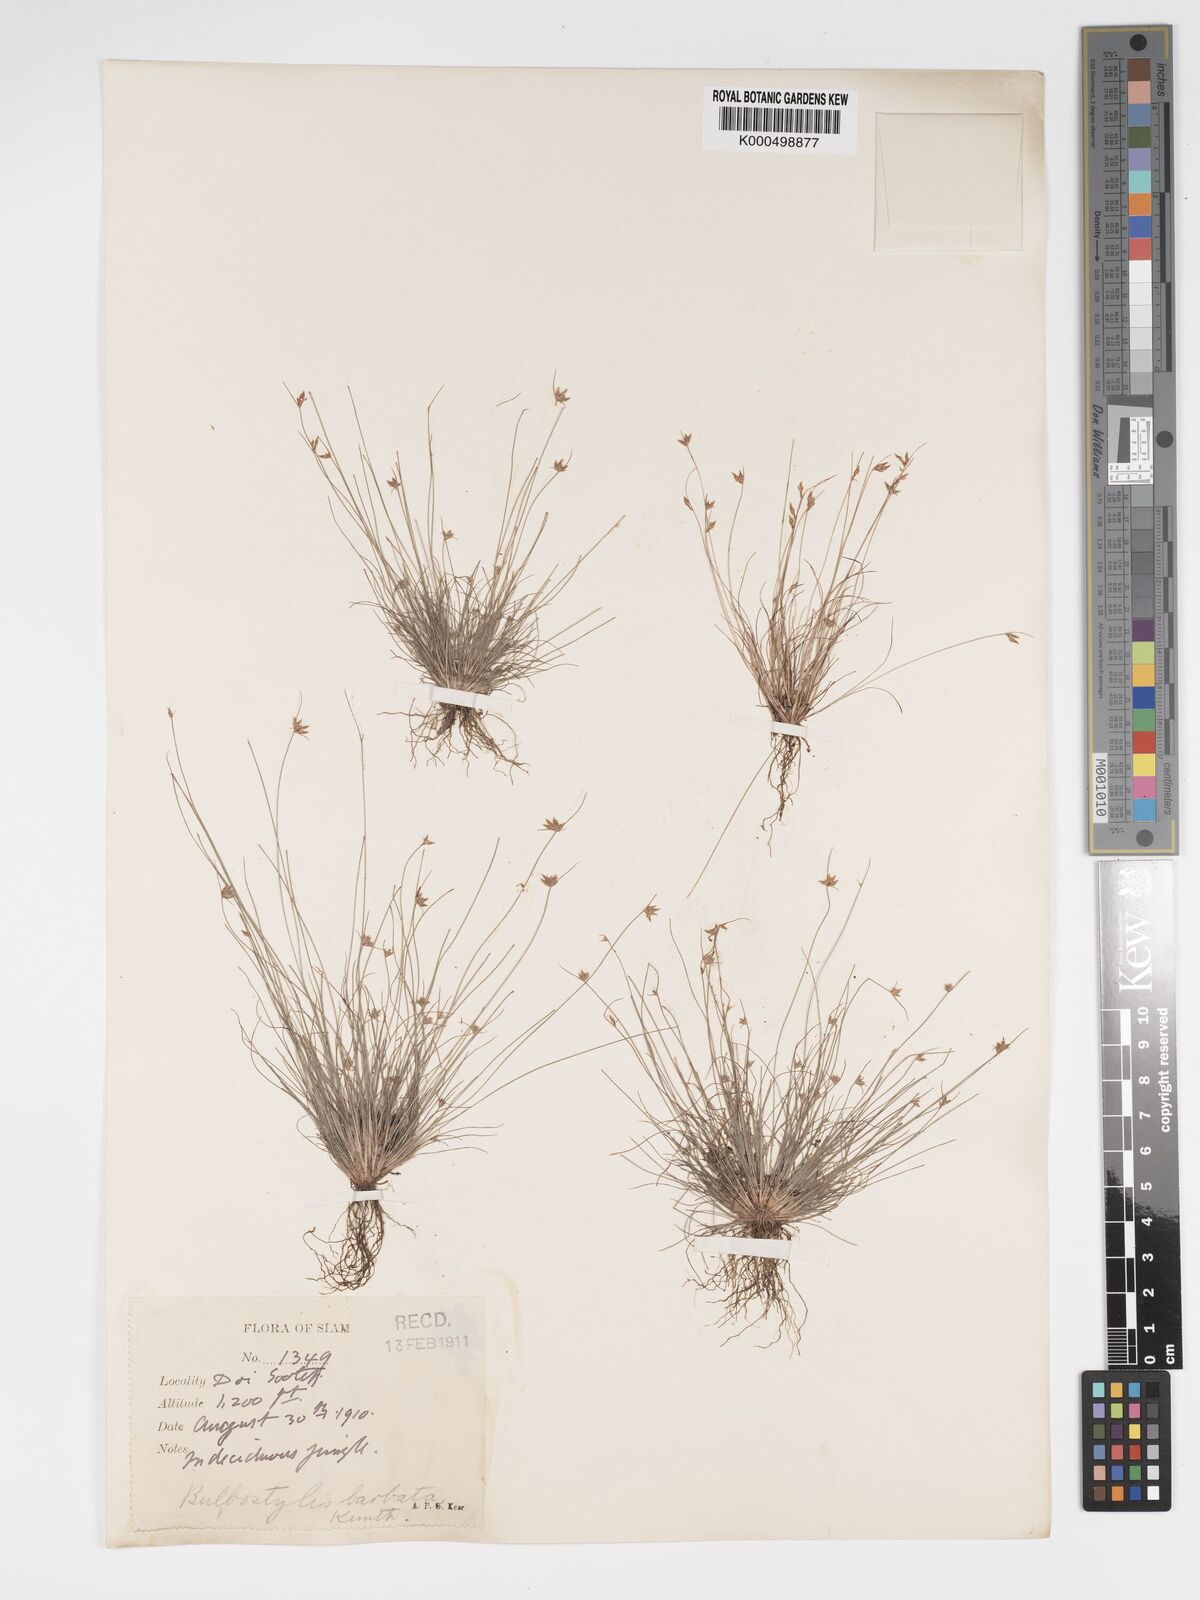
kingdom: Plantae
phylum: Tracheophyta
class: Liliopsida
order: Poales
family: Cyperaceae
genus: Bulbostylis
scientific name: Bulbostylis barbata
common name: Watergrass
